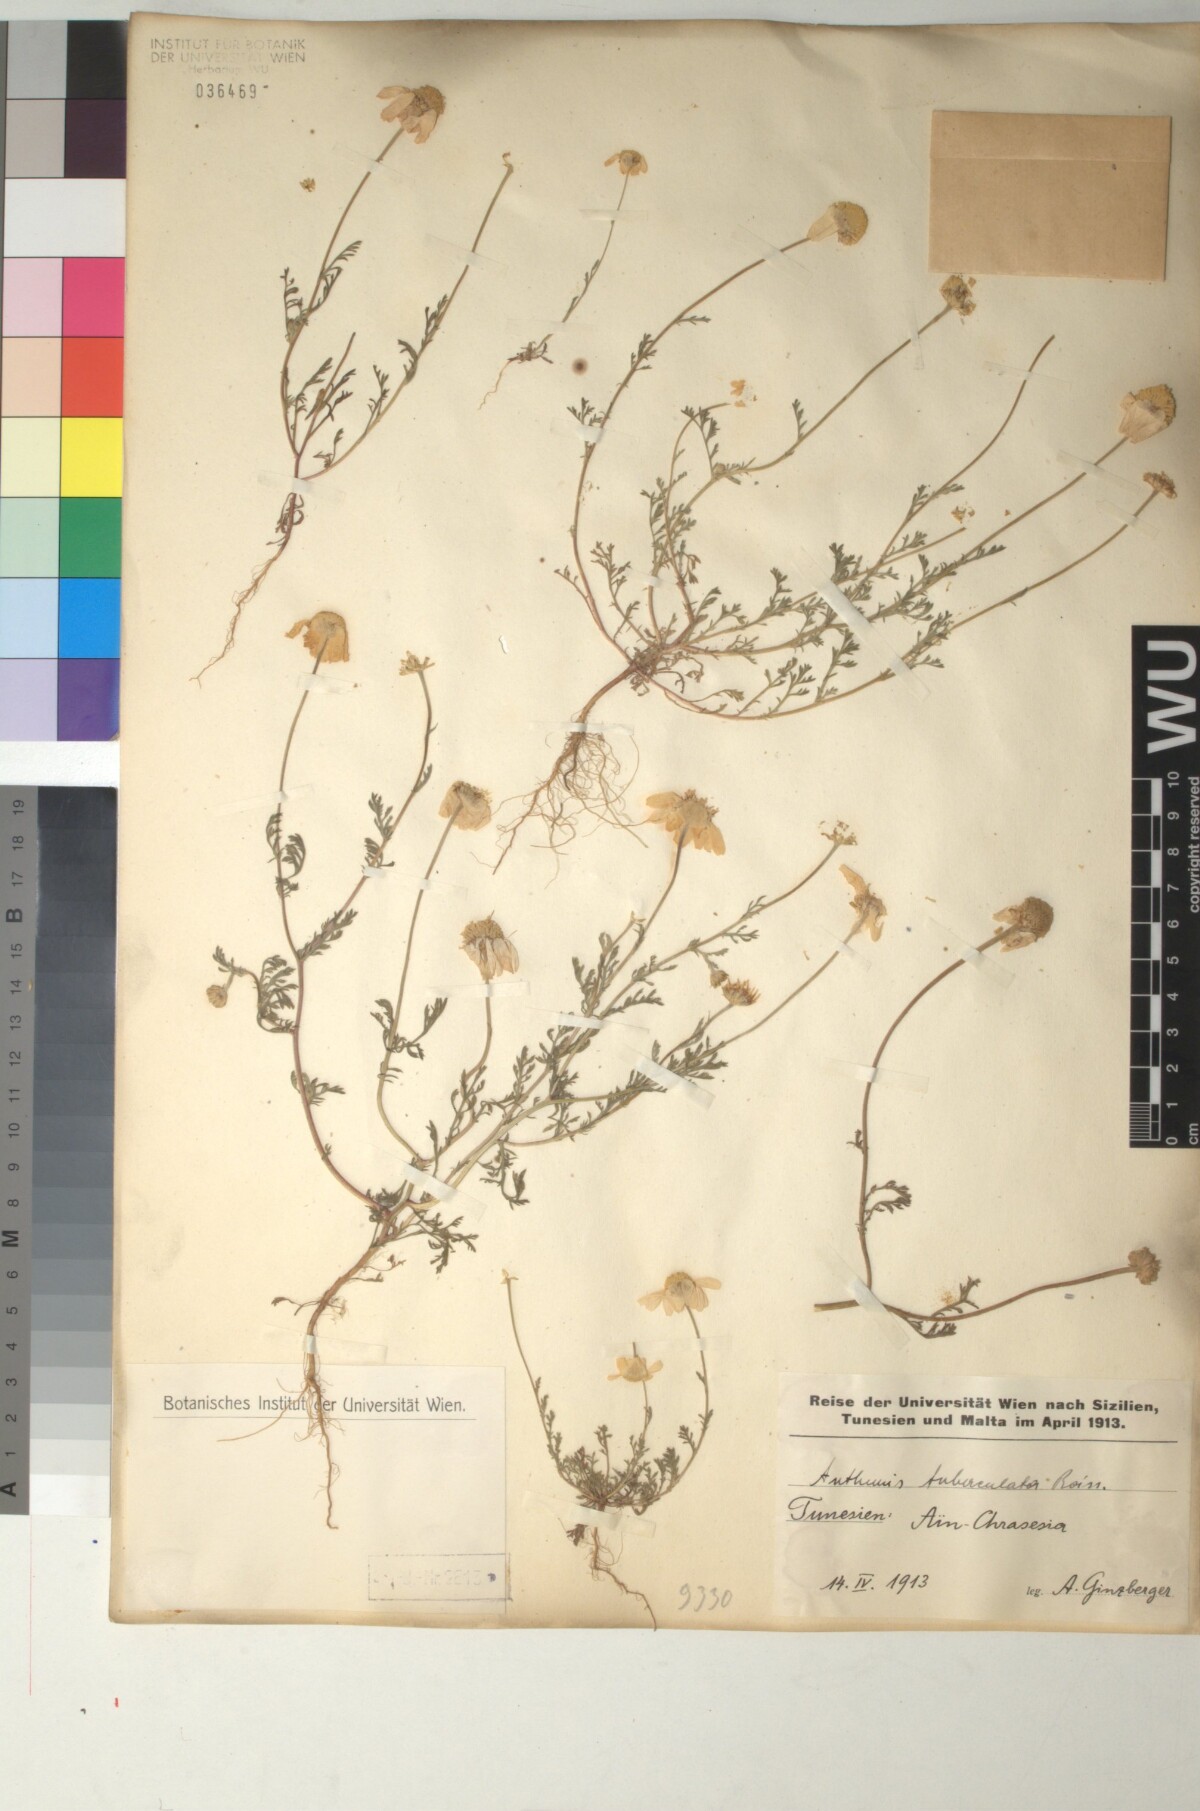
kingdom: Plantae
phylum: Tracheophyta
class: Magnoliopsida
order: Asterales
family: Asteraceae
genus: Anthemis
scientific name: Anthemis pedunculata
